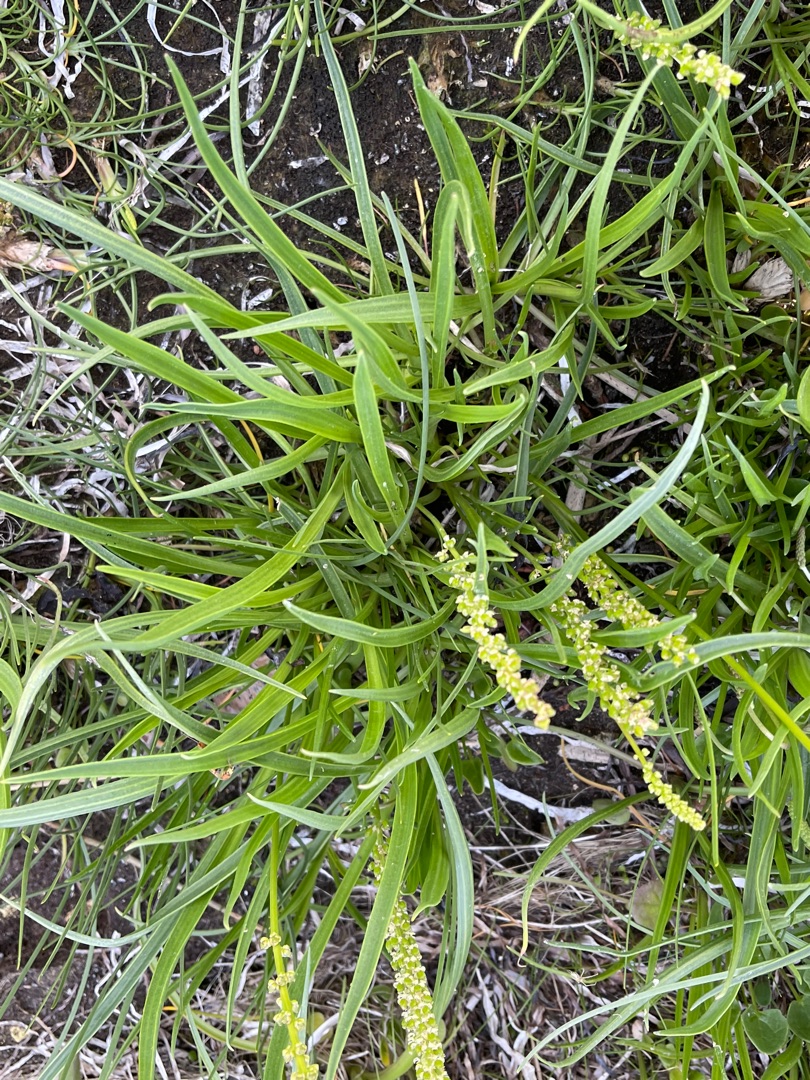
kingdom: Plantae
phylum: Tracheophyta
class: Liliopsida
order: Alismatales
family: Juncaginaceae
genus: Triglochin
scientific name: Triglochin maritima
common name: Strand-trehage
